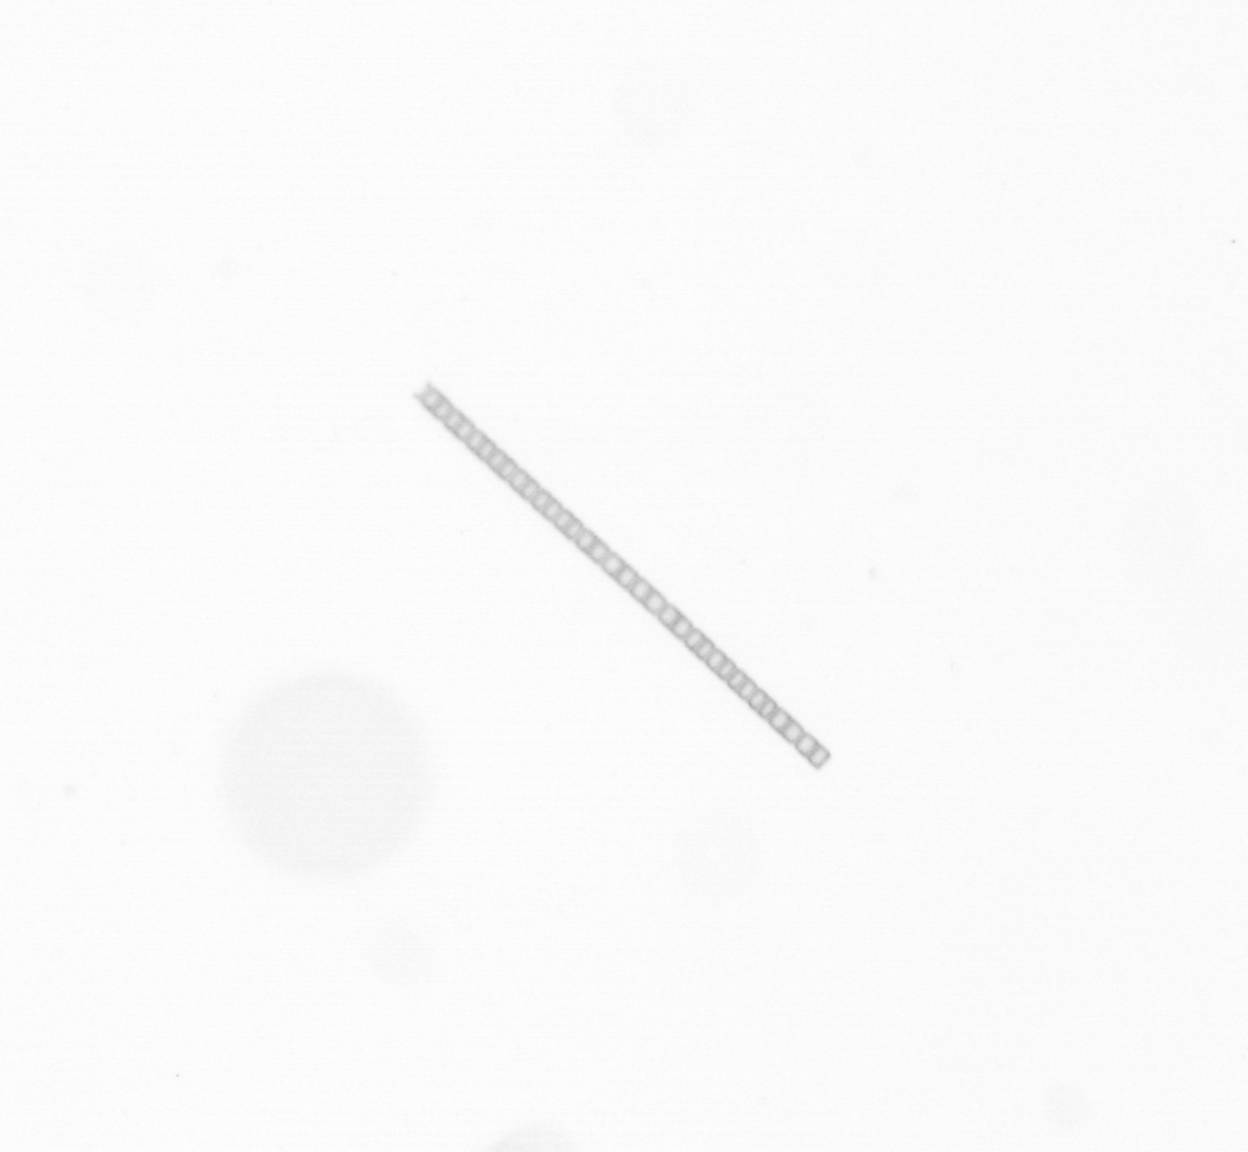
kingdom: Chromista
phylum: Ochrophyta
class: Bacillariophyceae
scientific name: Bacillariophyceae
